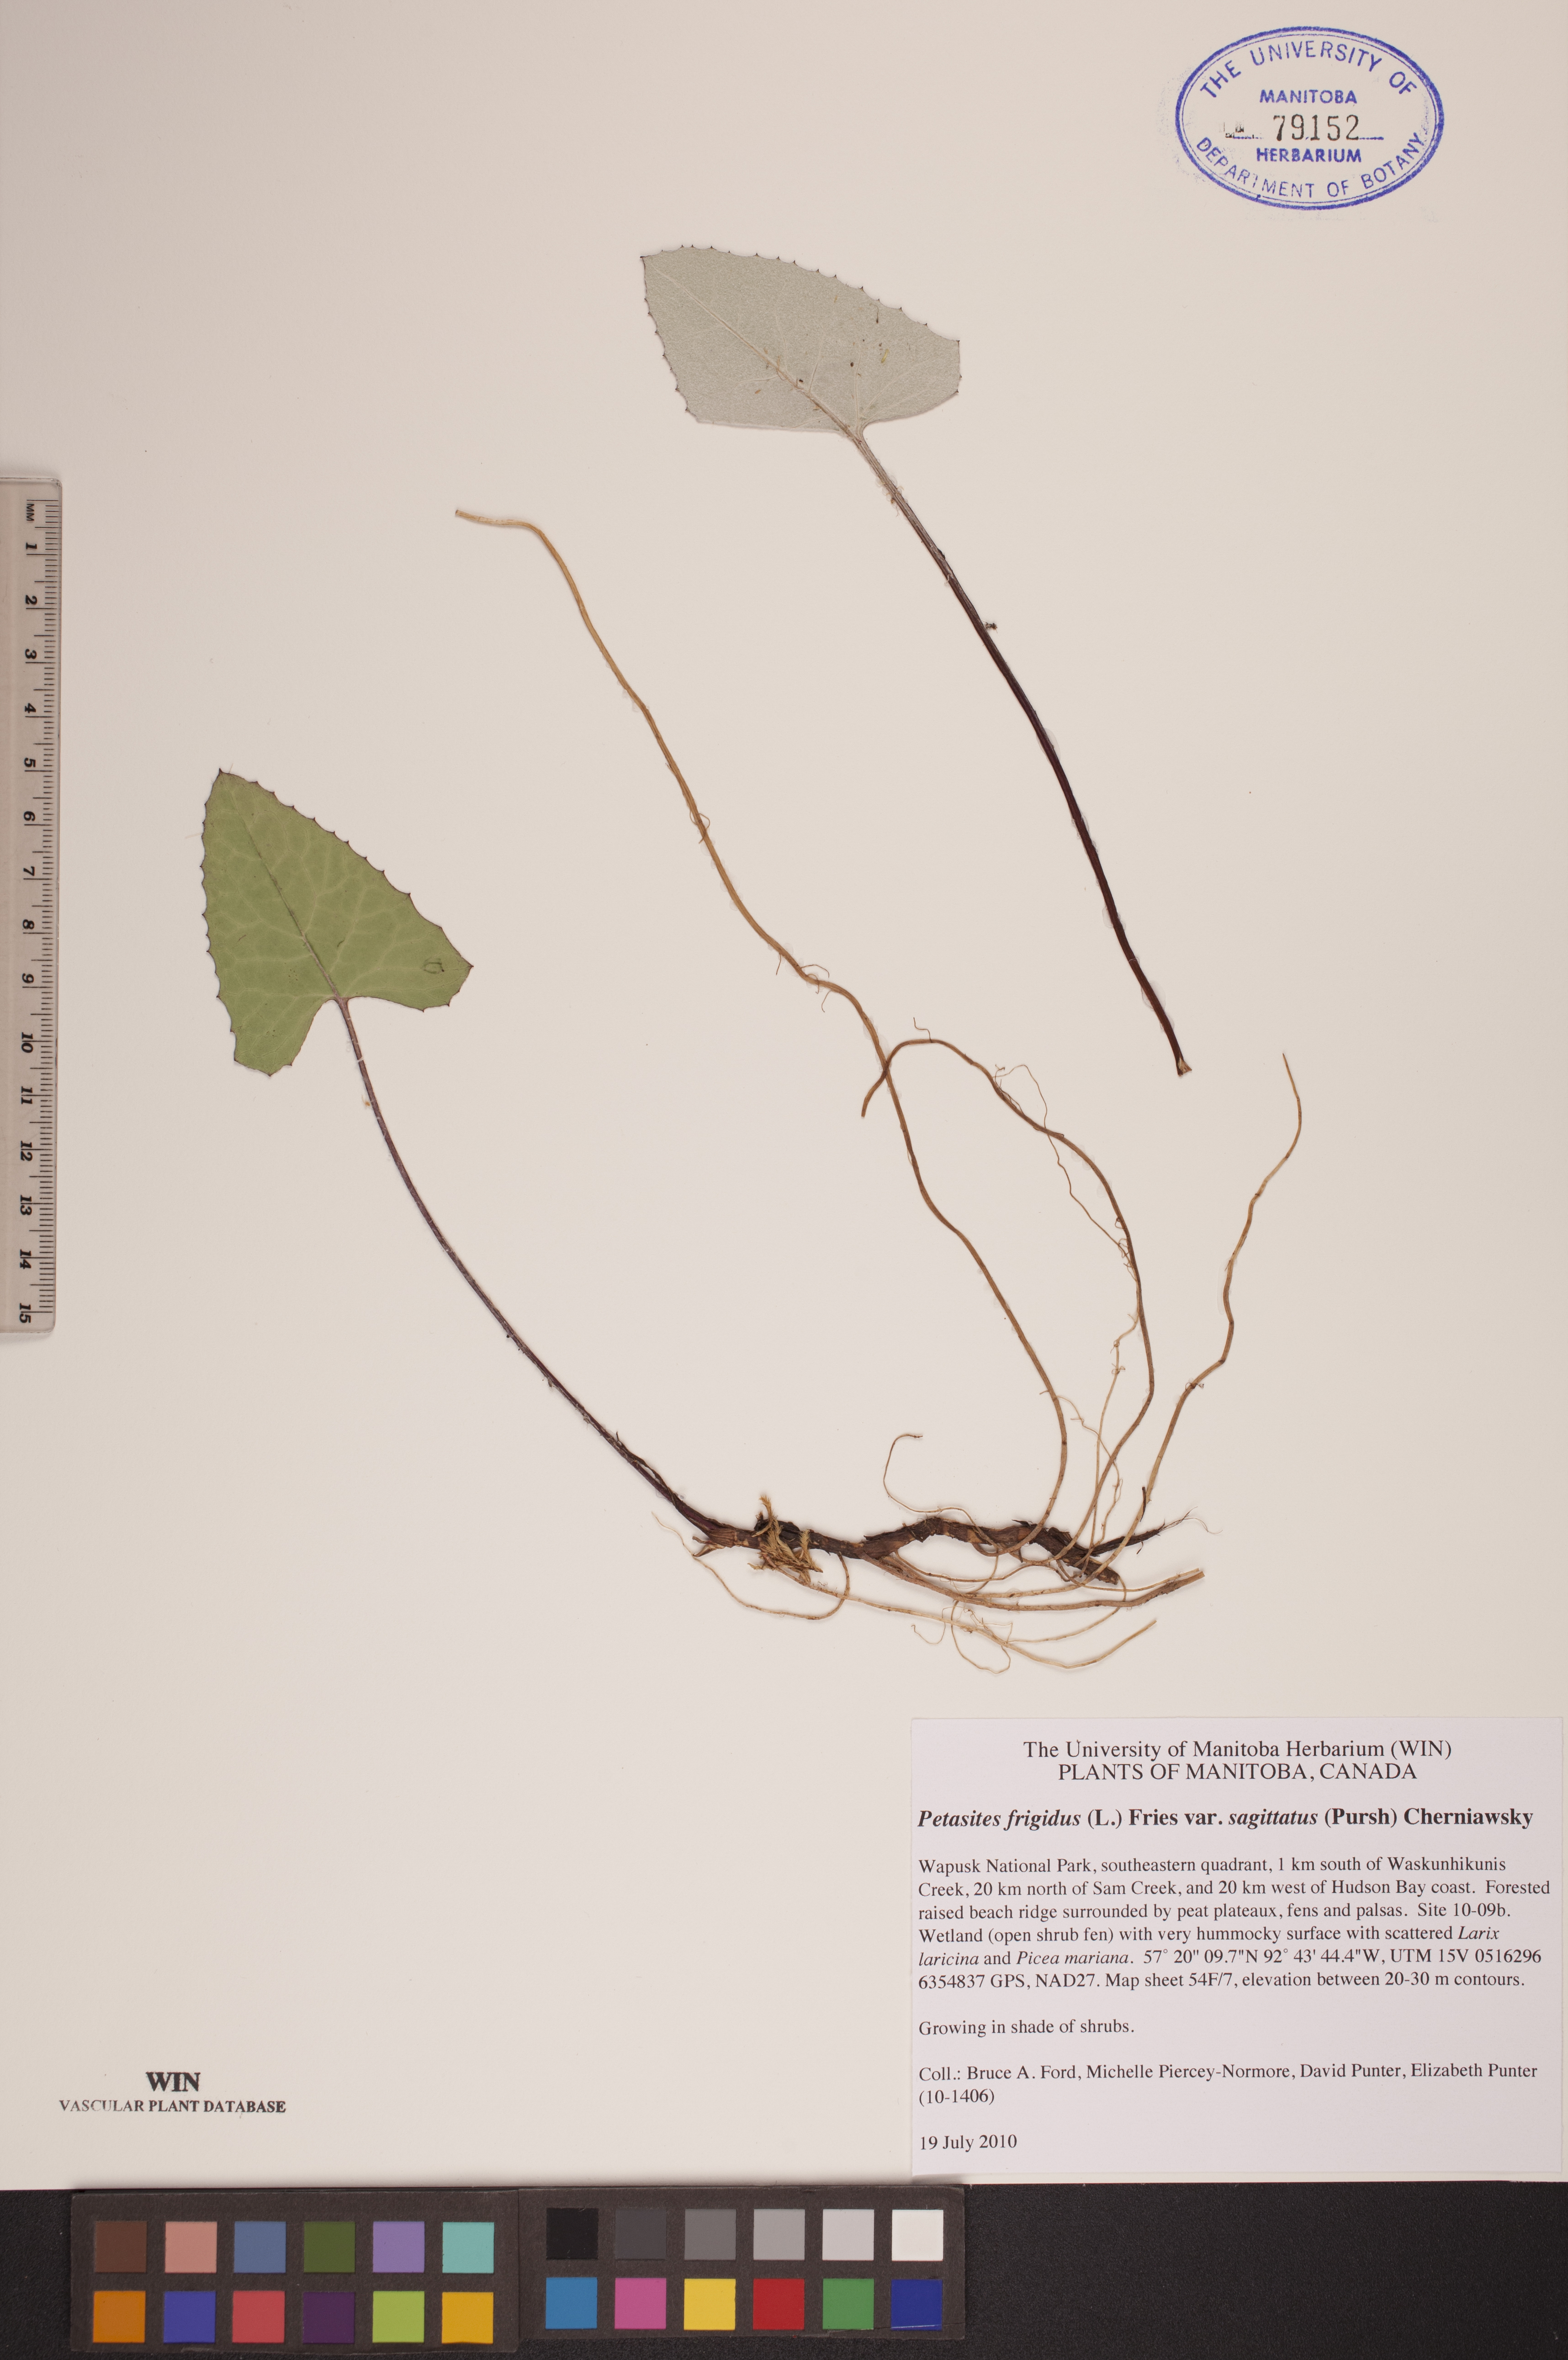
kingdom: Plantae
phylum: Tracheophyta
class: Magnoliopsida
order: Asterales
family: Asteraceae
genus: Petasites
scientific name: Petasites frigidus
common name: Arctic butterbur
